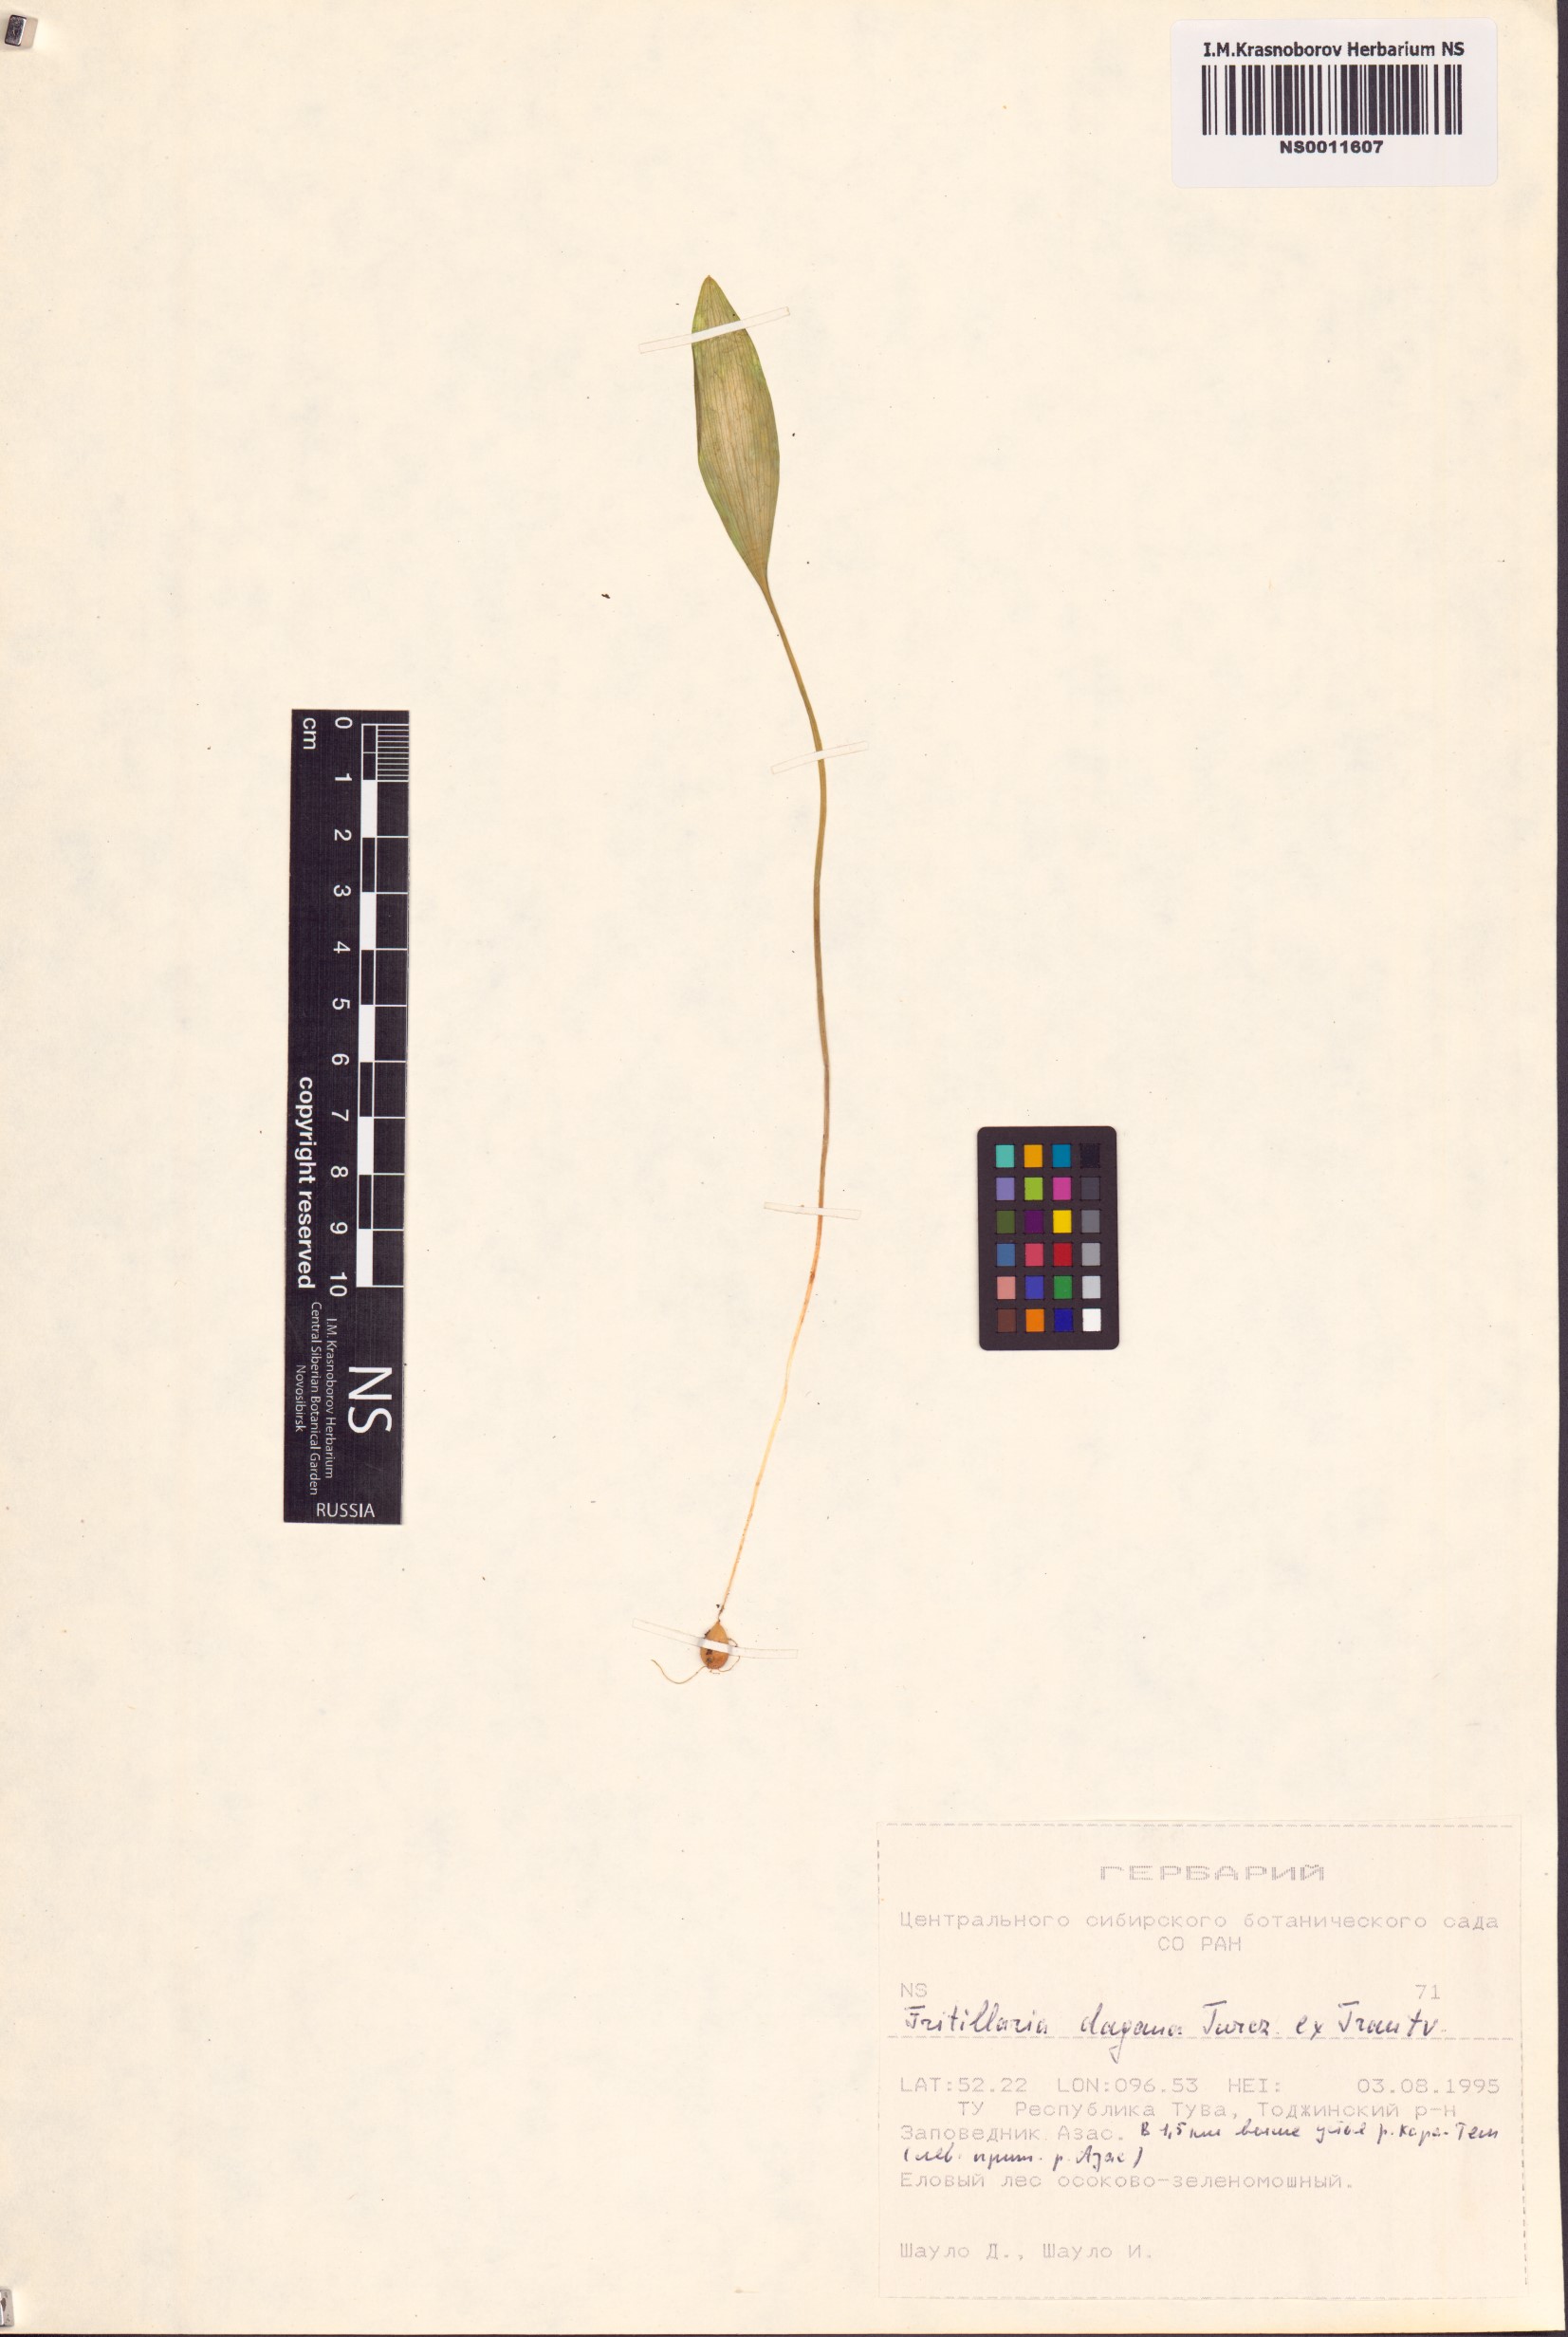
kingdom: Plantae
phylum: Tracheophyta
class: Liliopsida
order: Liliales
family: Liliaceae
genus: Fritillaria
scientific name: Fritillaria dagana
